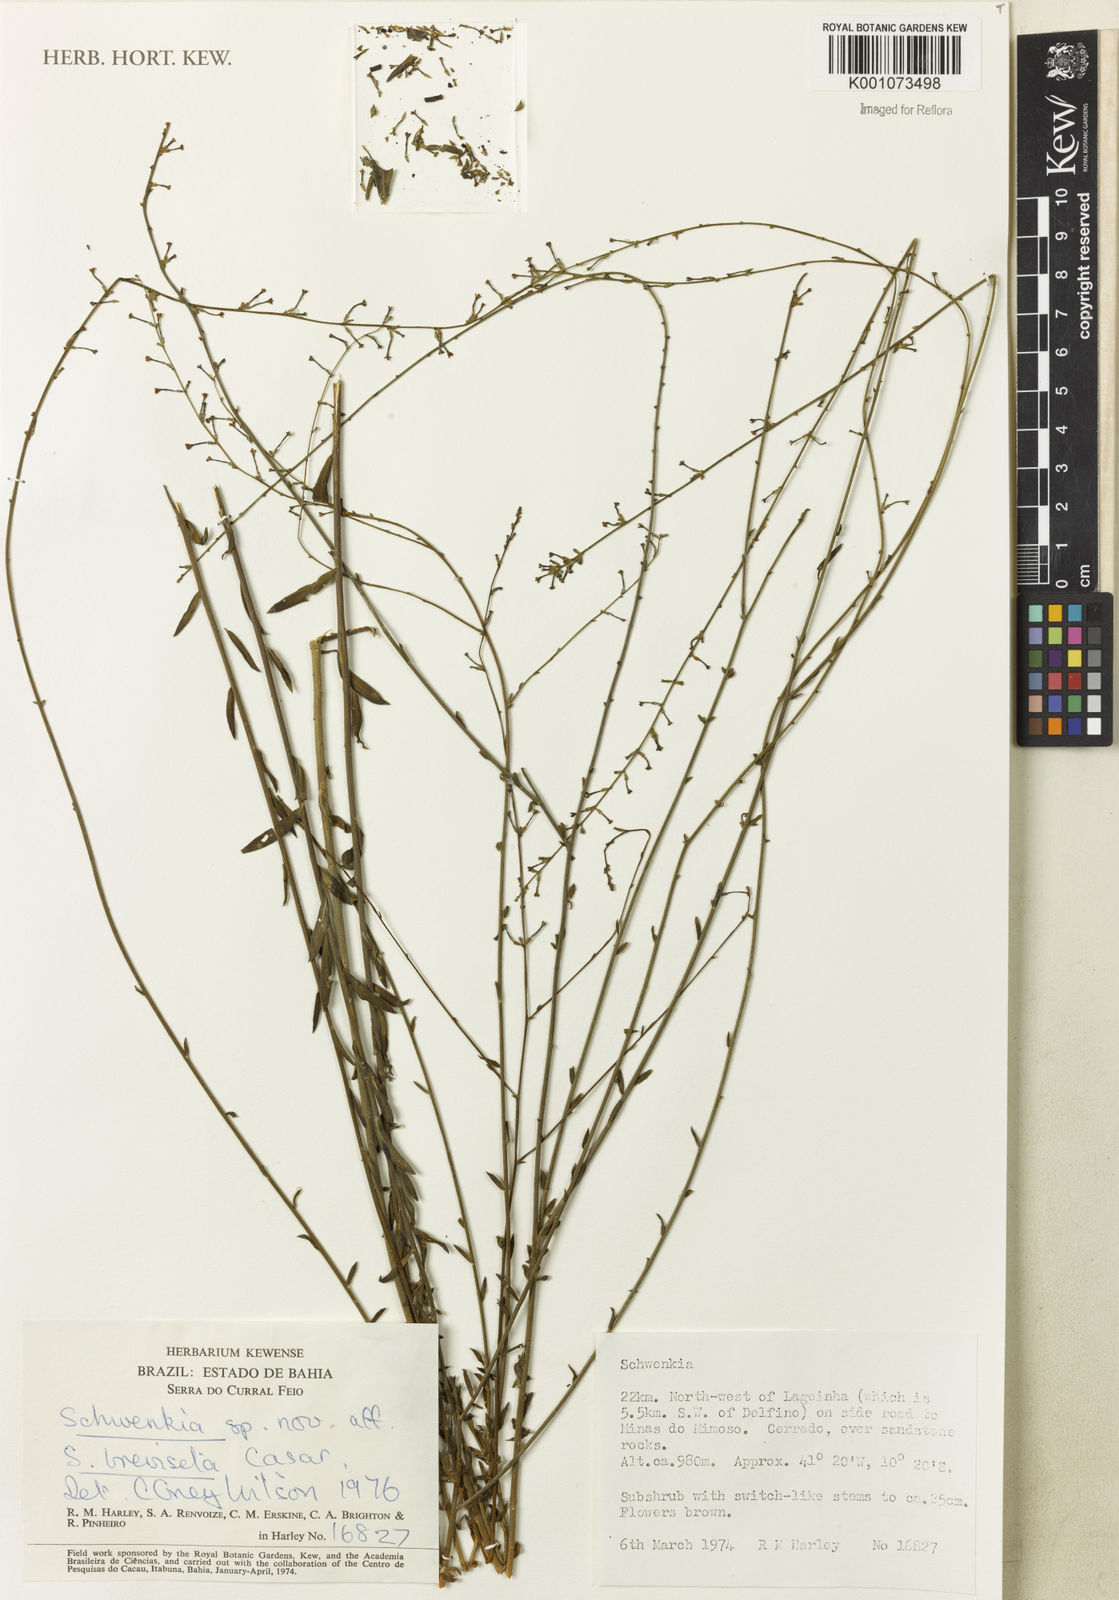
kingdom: Plantae
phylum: Tracheophyta
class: Magnoliopsida
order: Solanales
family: Solanaceae
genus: Schwenckia
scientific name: Schwenckia breviseta
